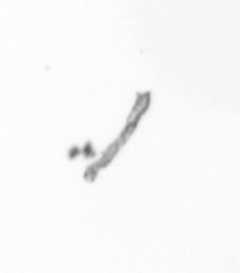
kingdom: Chromista
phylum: Ochrophyta
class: Bacillariophyceae
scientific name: Bacillariophyceae
